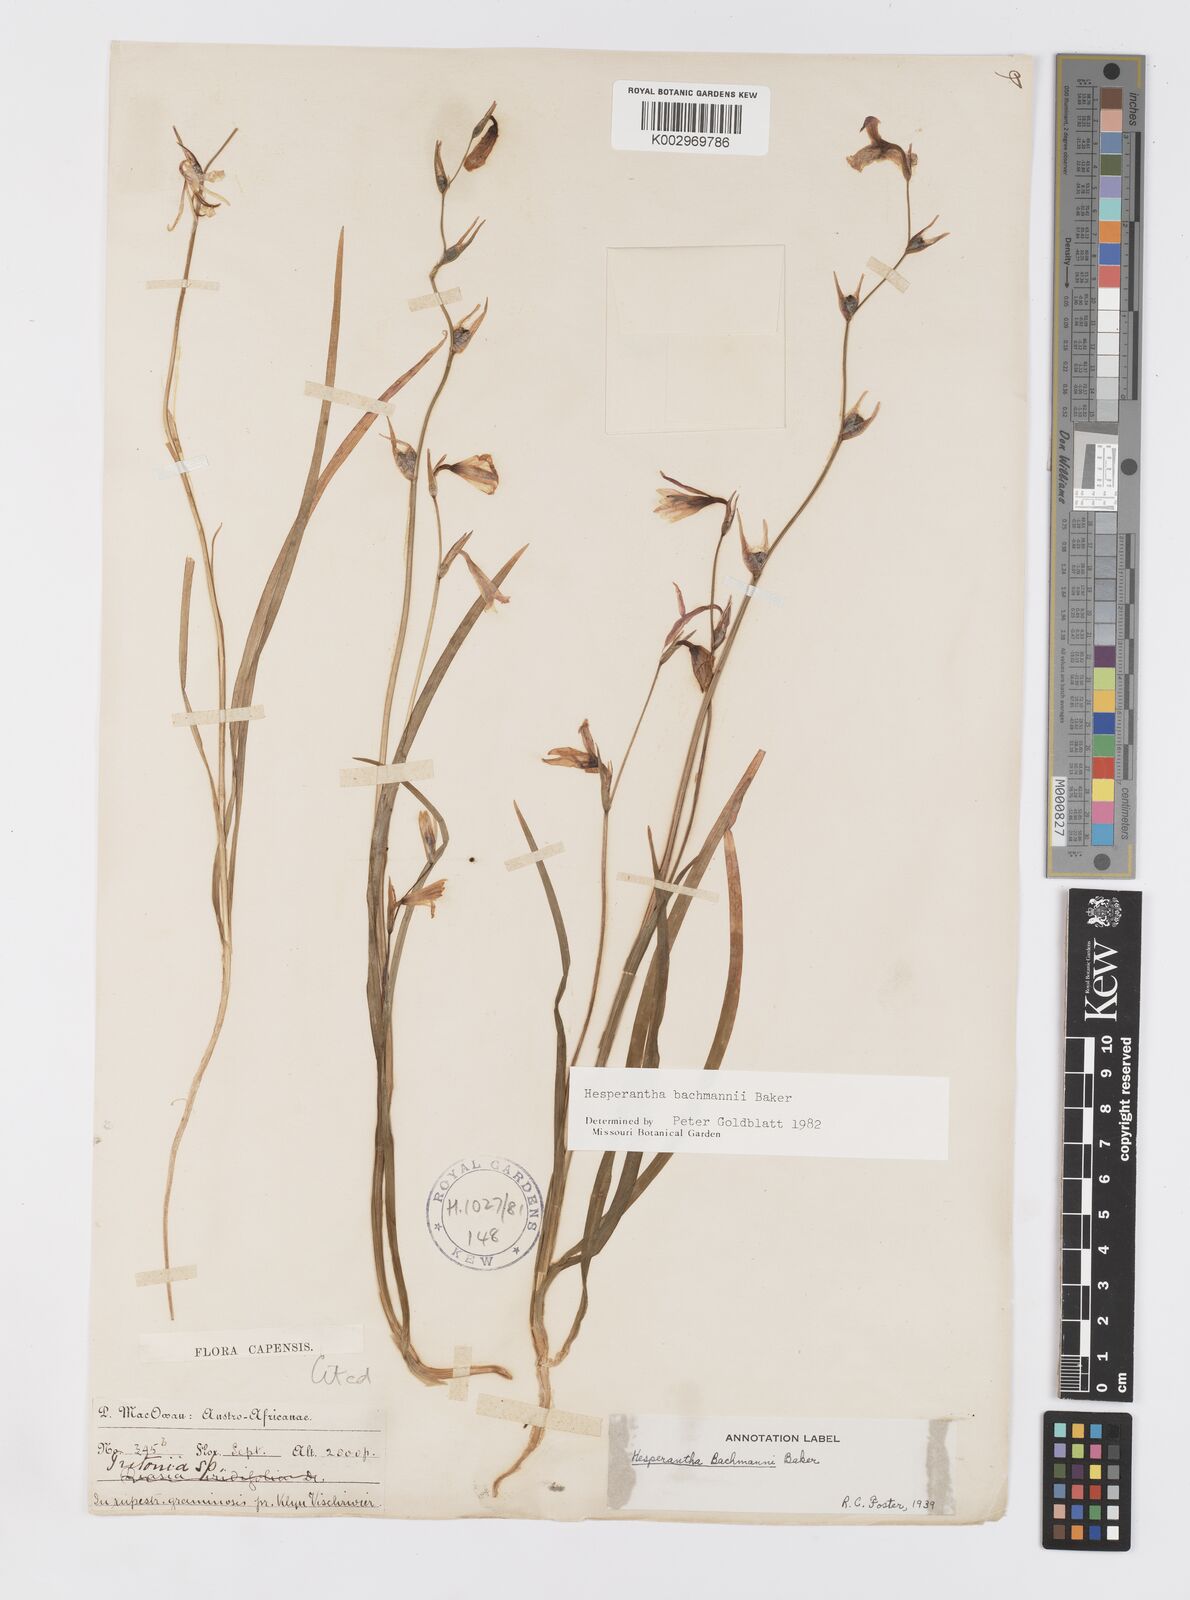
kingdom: Plantae
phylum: Tracheophyta
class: Liliopsida
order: Asparagales
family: Iridaceae
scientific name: Iridaceae
